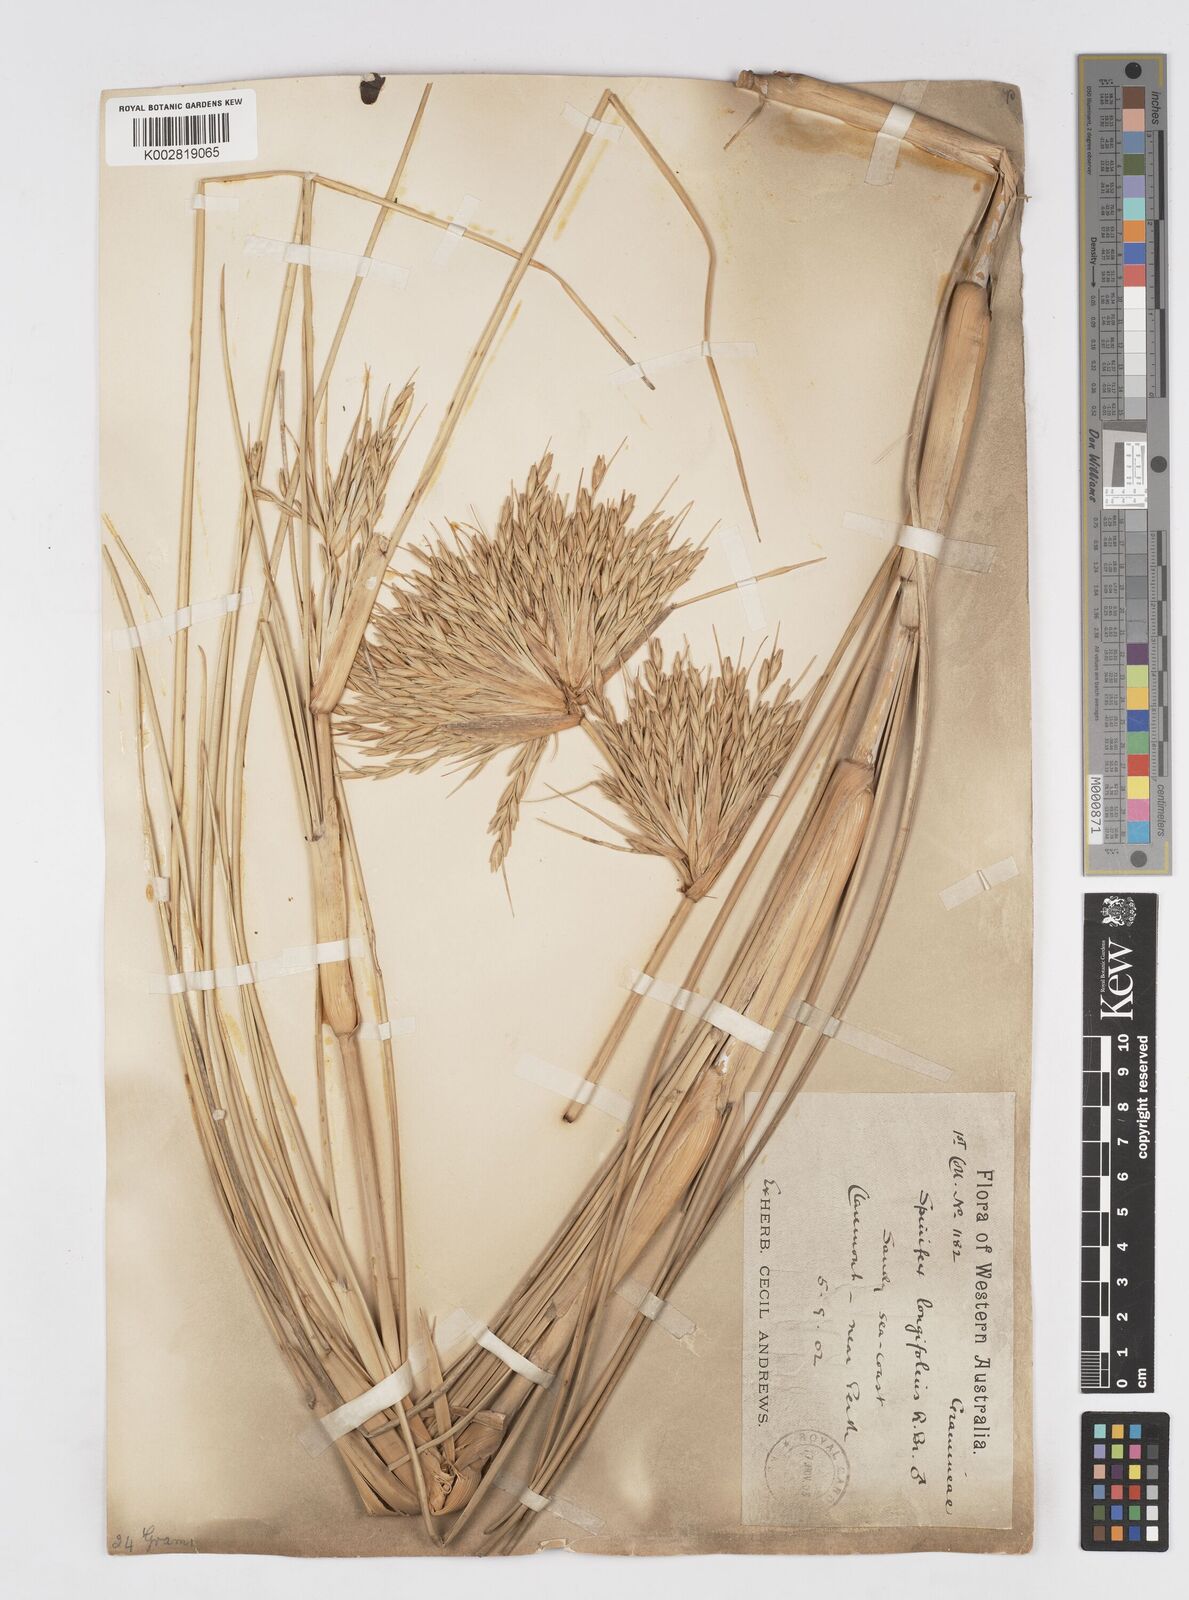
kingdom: Plantae
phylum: Tracheophyta
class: Liliopsida
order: Poales
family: Poaceae
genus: Spinifex
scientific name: Spinifex longifolius
